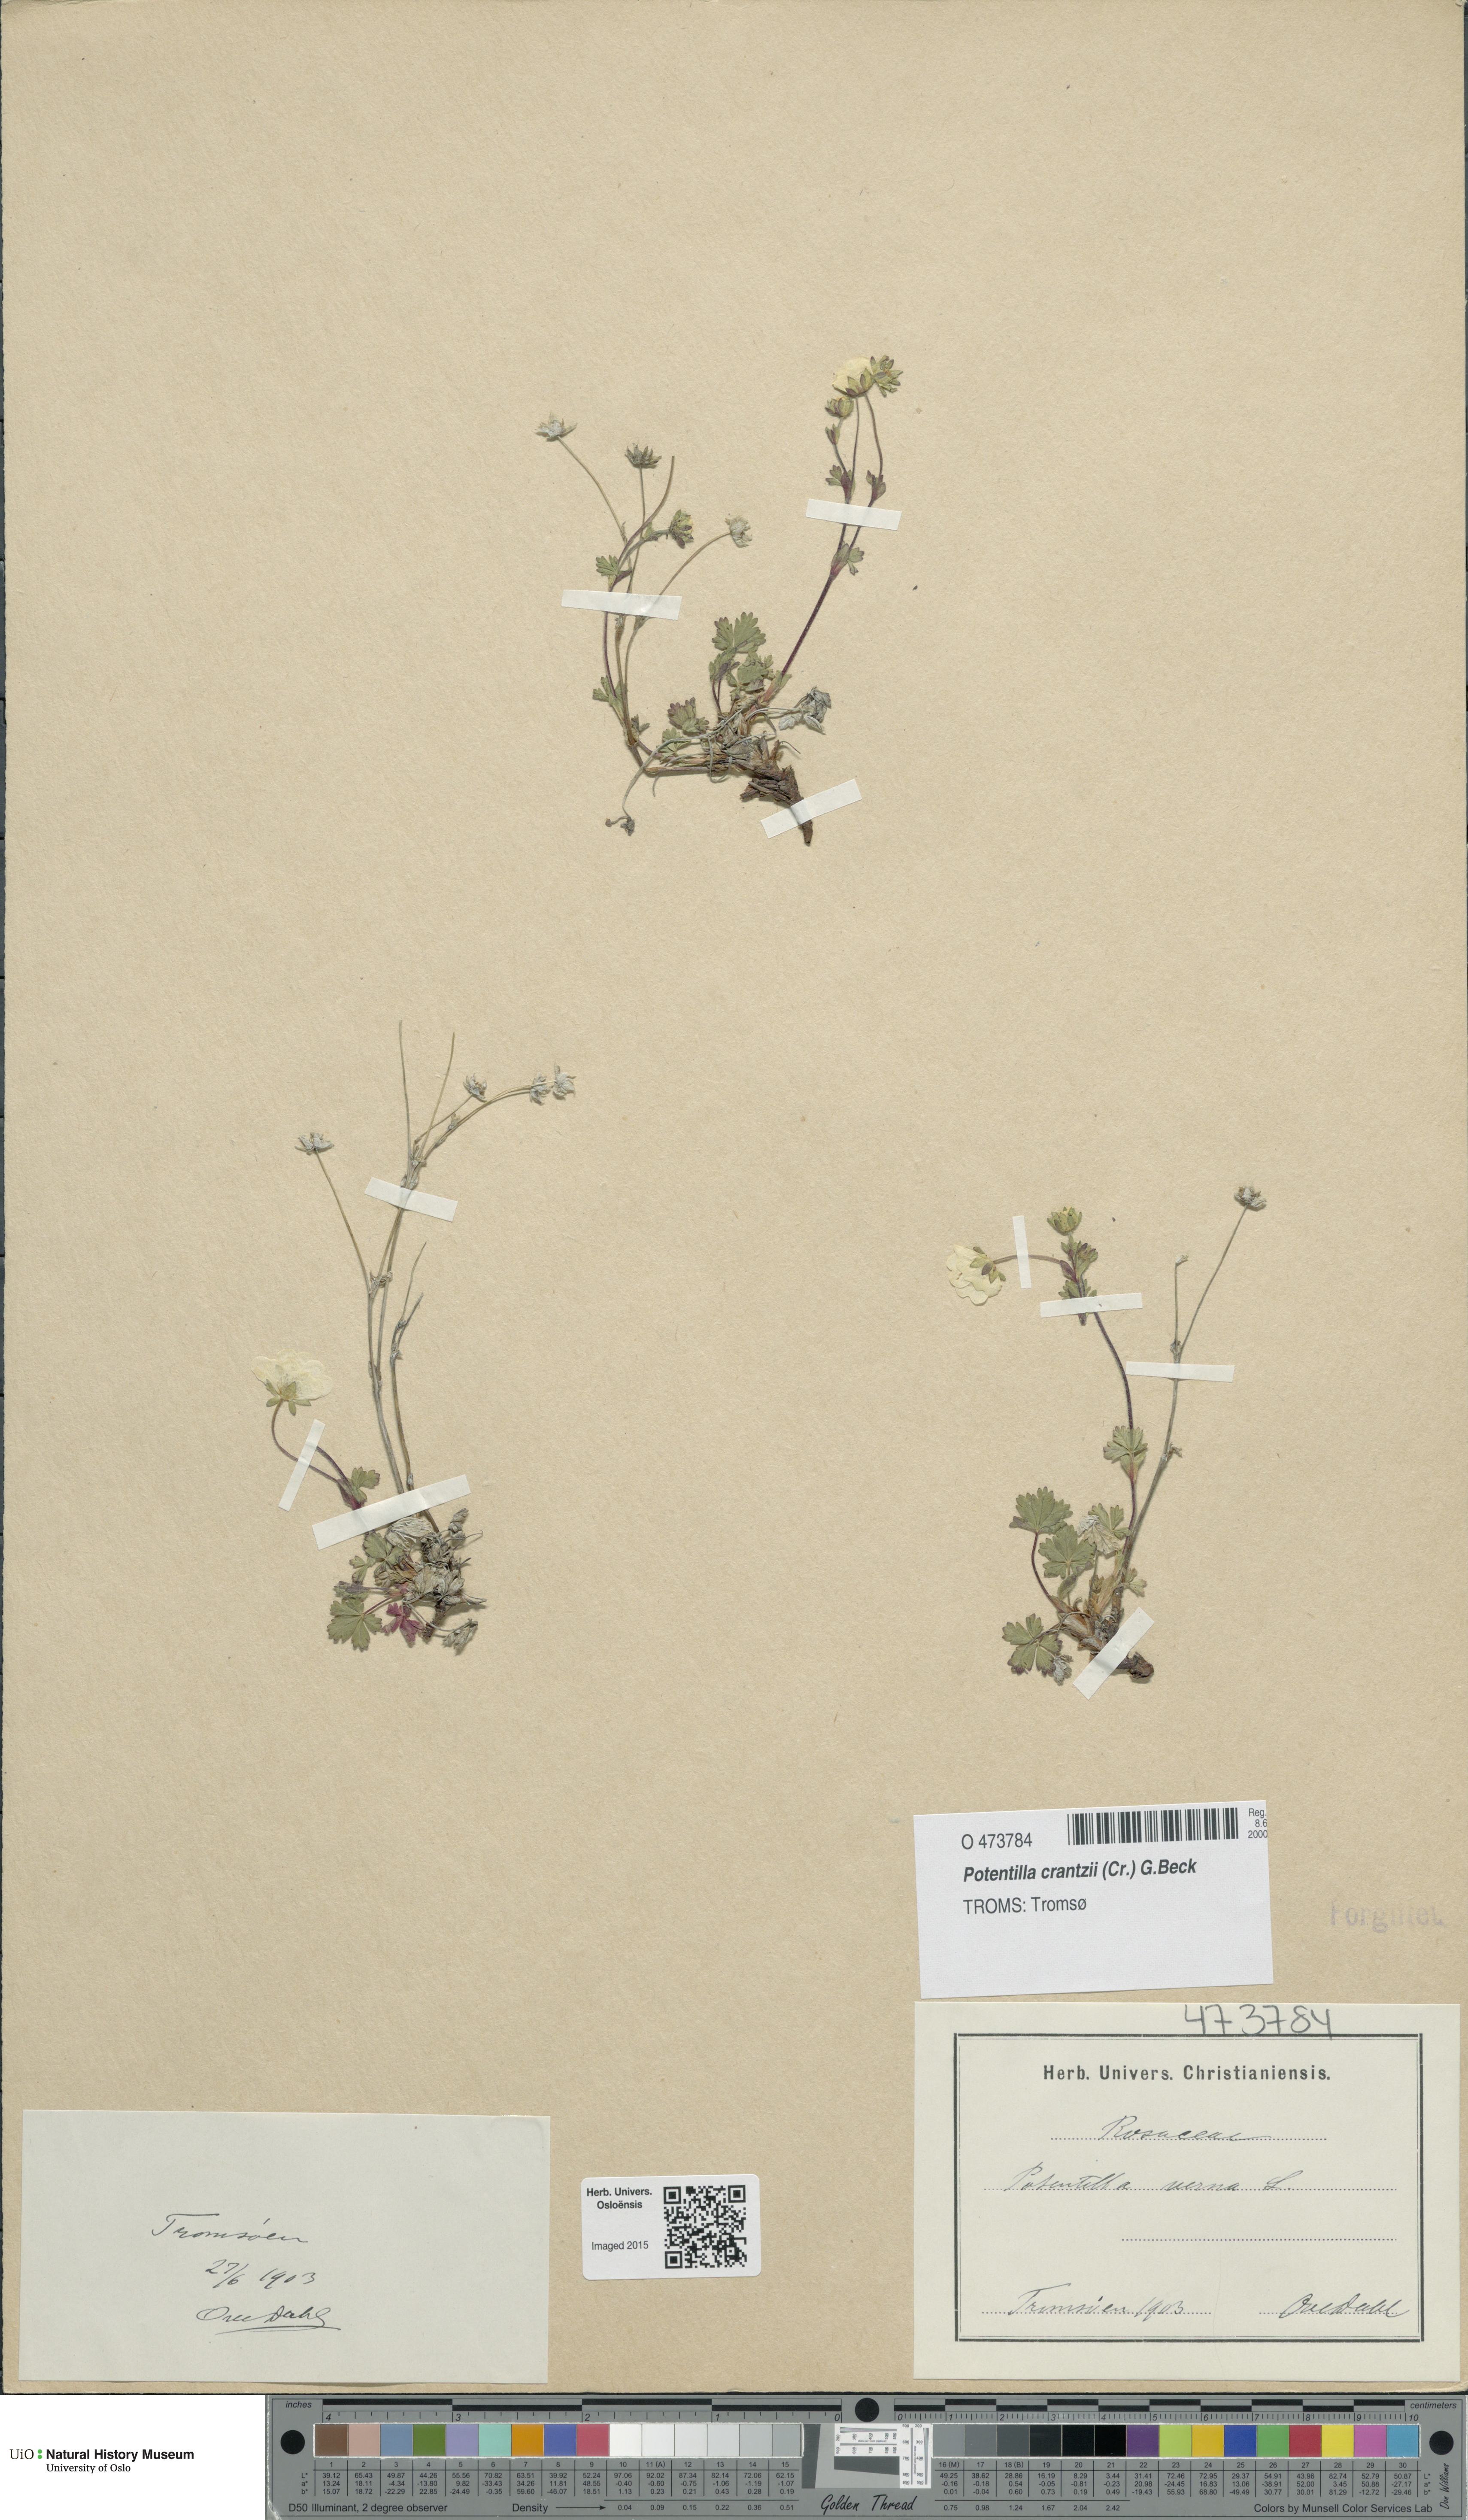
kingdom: Plantae
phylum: Tracheophyta
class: Magnoliopsida
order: Rosales
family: Rosaceae
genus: Potentilla
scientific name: Potentilla verna
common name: Spring cinquefoil
